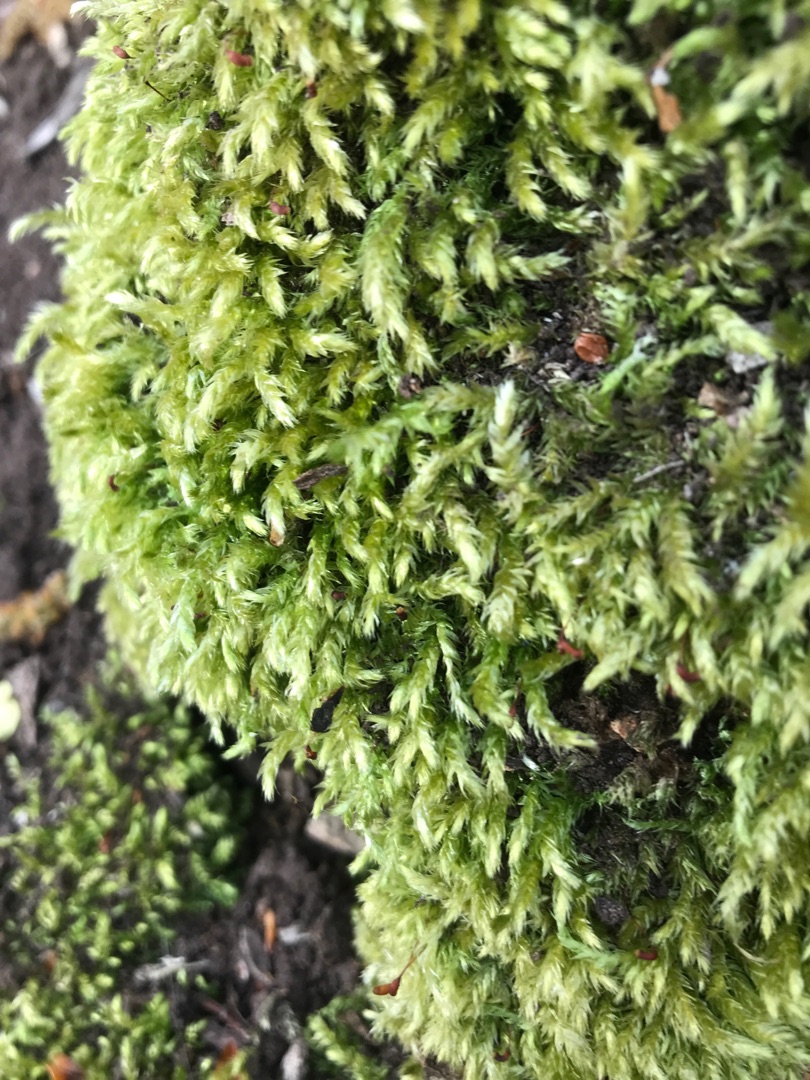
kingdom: Plantae
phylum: Bryophyta
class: Bryopsida
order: Hypnales
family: Brachytheciaceae
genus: Brachythecium
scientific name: Brachythecium rutabulum
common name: Almindelig kortkapsel
